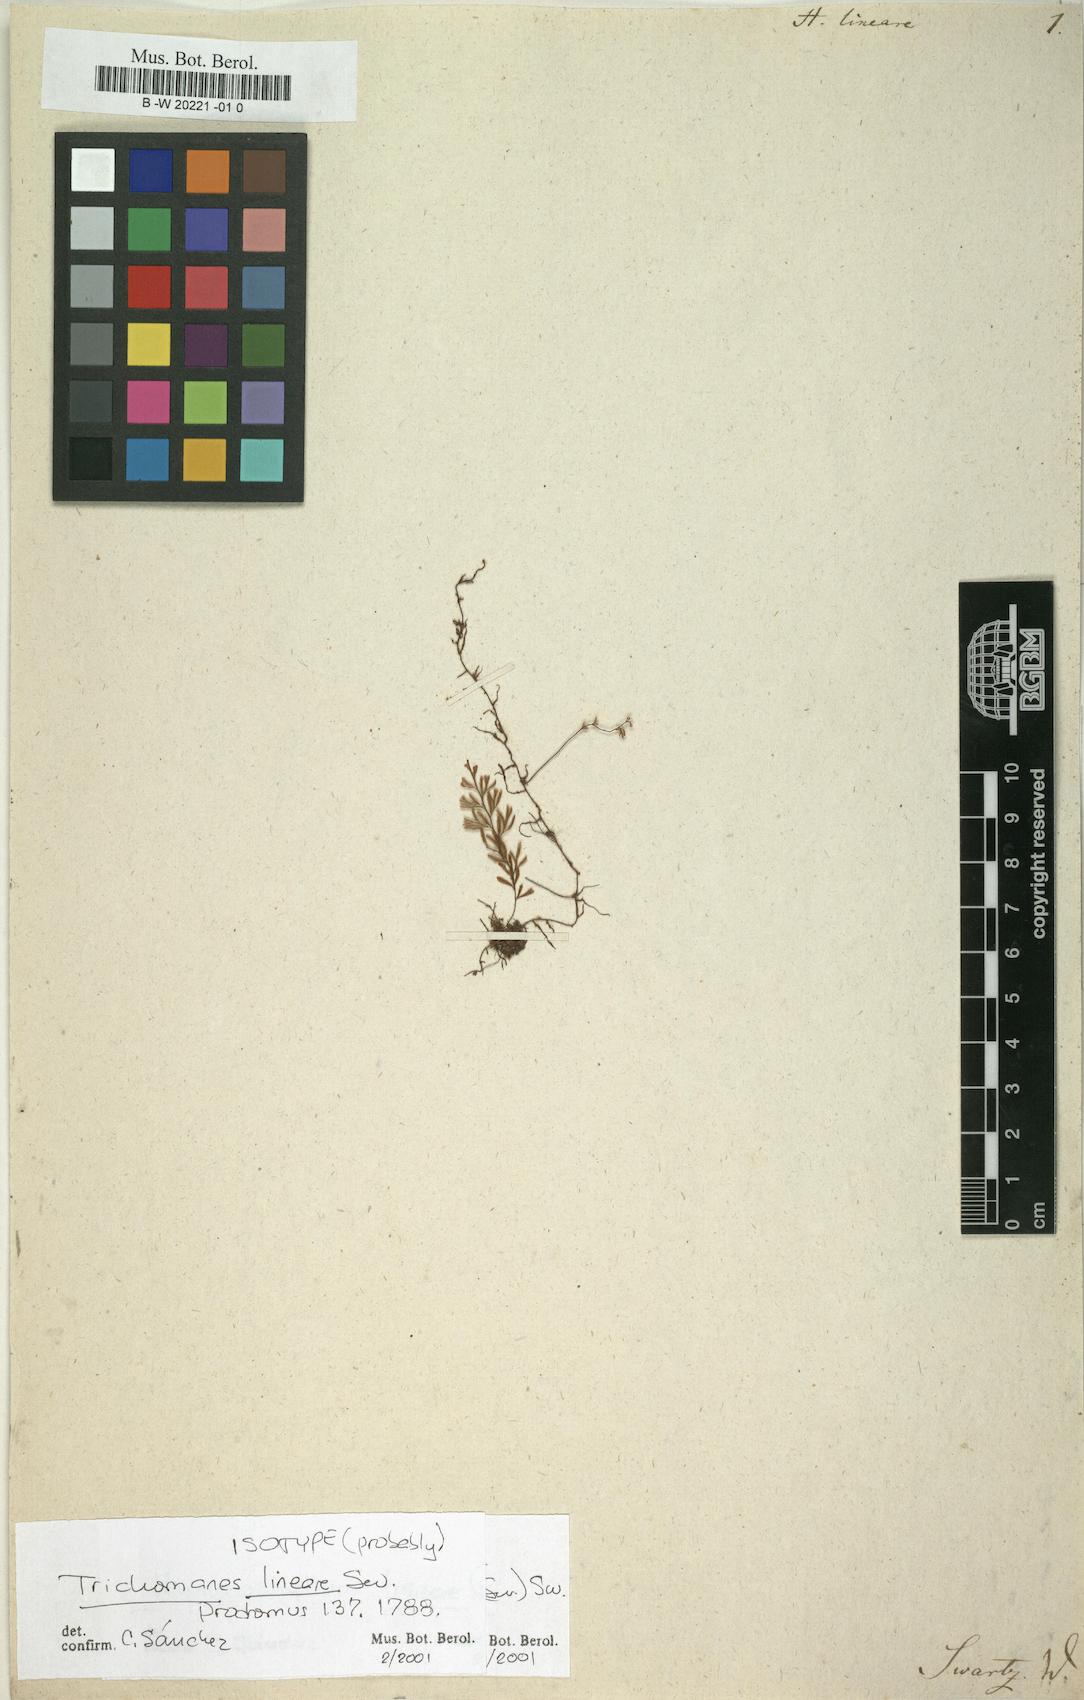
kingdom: Plantae
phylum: Tracheophyta
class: Polypodiopsida
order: Hymenophyllales
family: Hymenophyllaceae
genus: Hymenophyllum
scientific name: Hymenophyllum lineare
